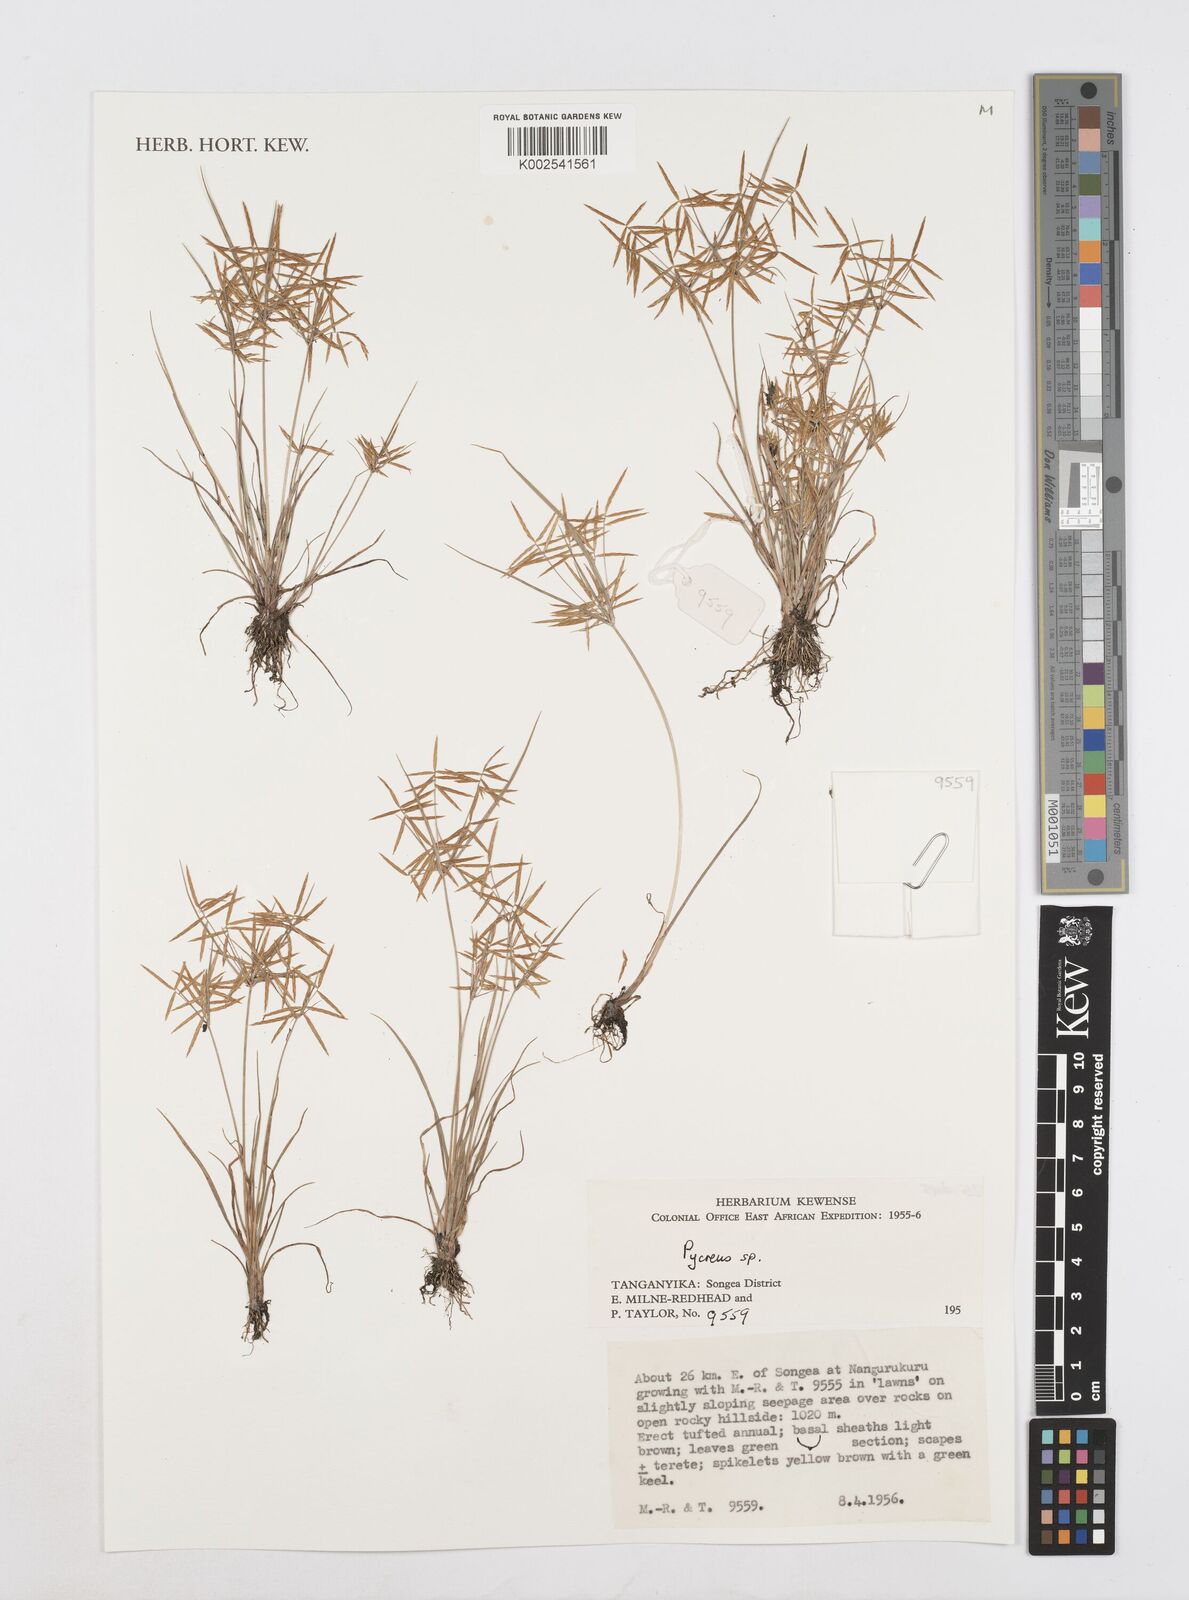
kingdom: Plantae
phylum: Tracheophyta
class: Liliopsida
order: Poales
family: Cyperaceae
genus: Cyperus
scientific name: Cyperus intactus
